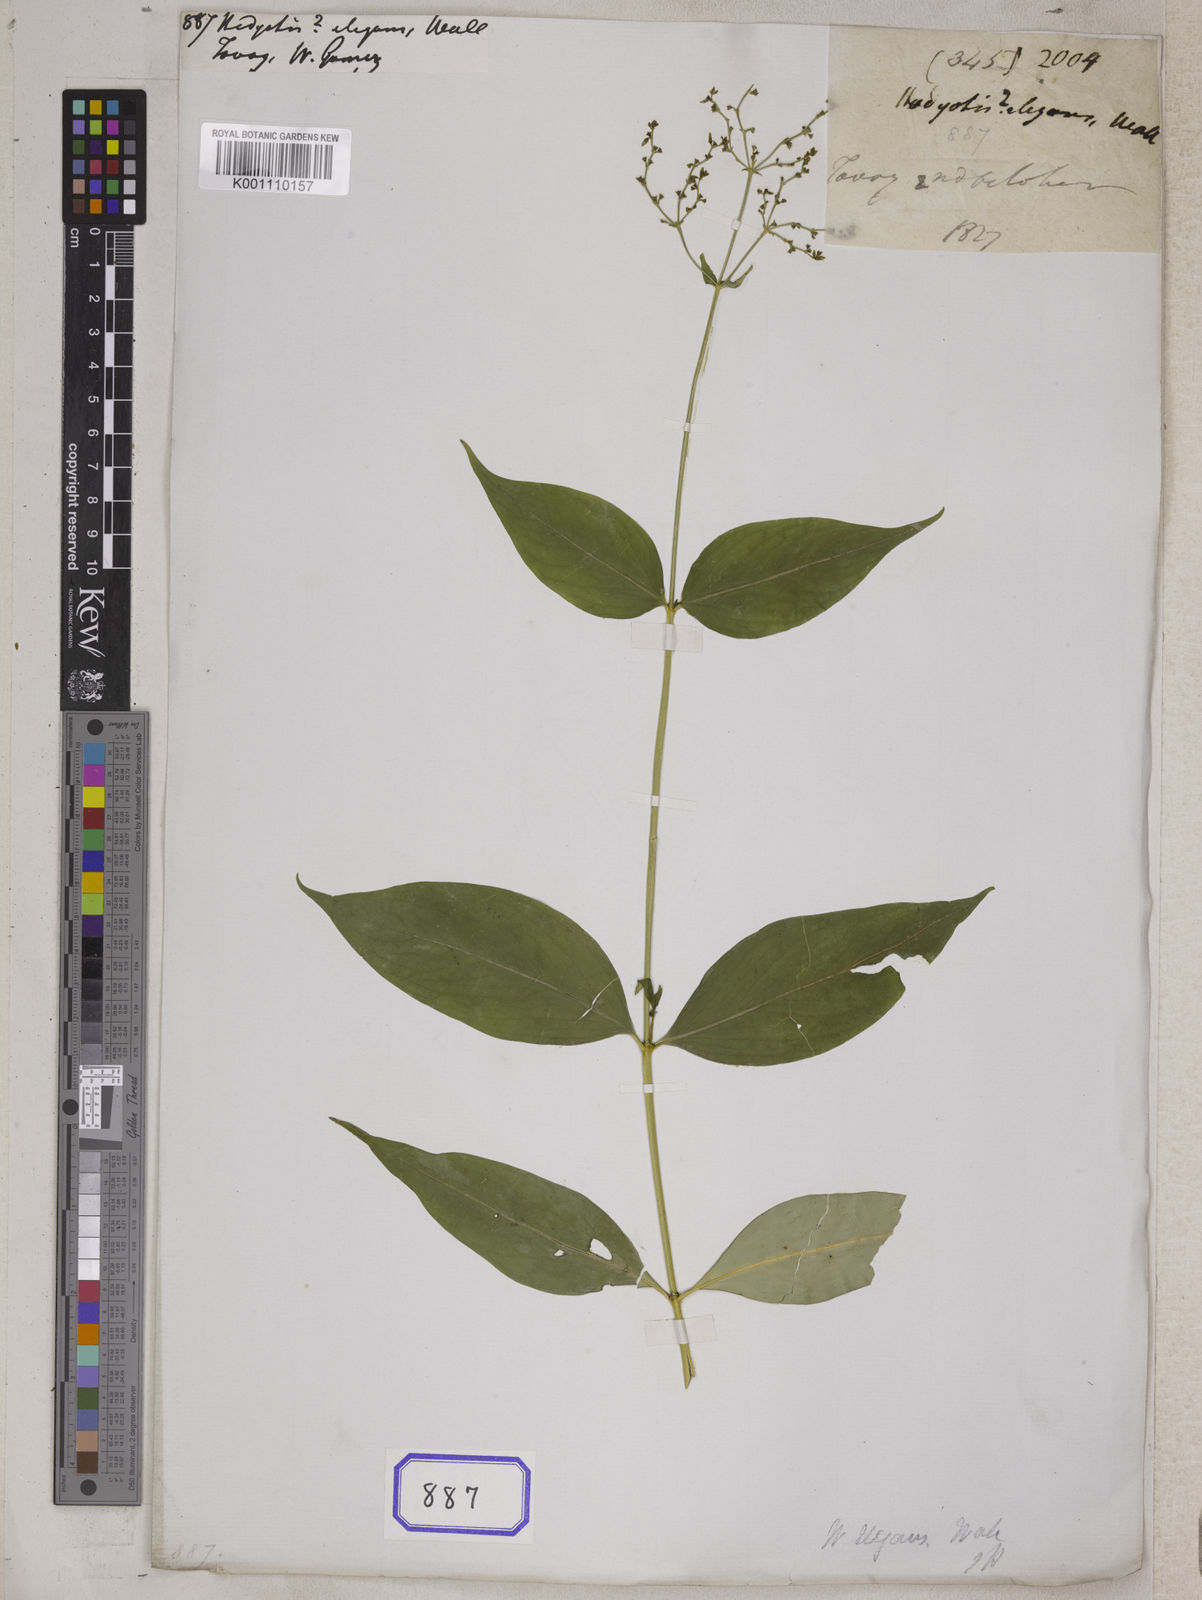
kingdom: Plantae
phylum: Tracheophyta
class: Magnoliopsida
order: Gentianales
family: Rubiaceae
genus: Hedyotis
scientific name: Hedyotis
